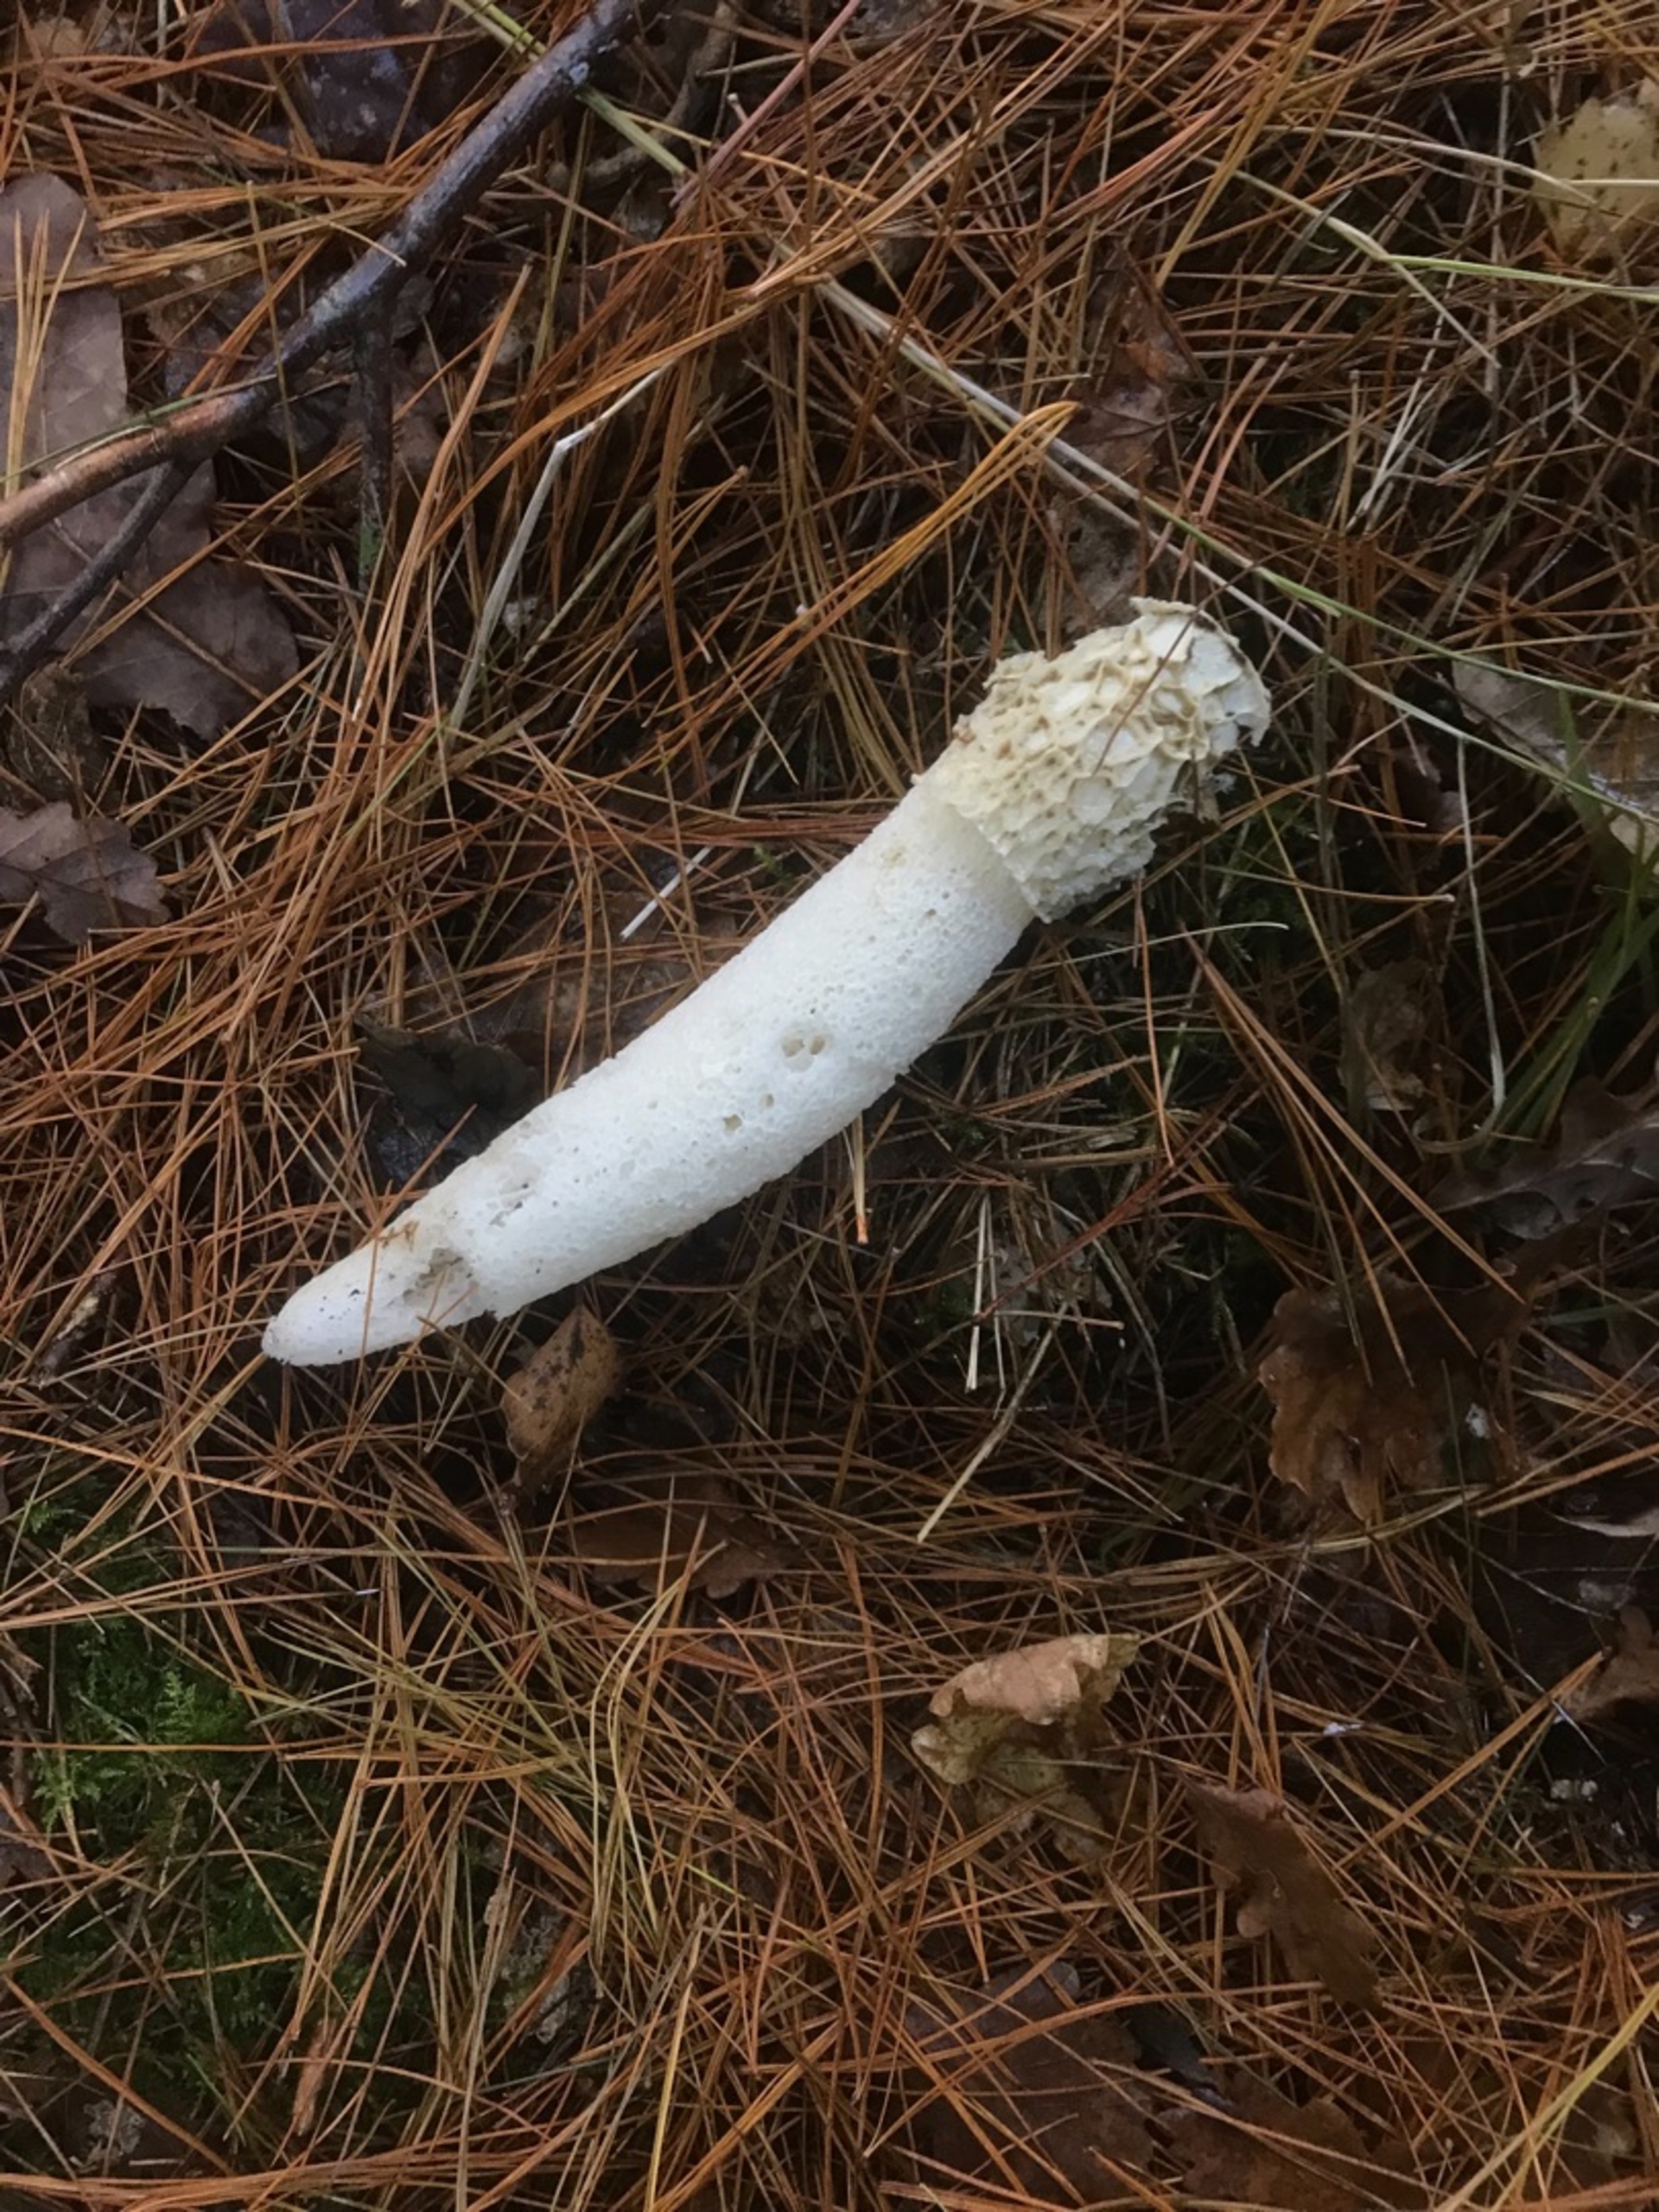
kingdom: Fungi
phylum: Basidiomycota
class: Agaricomycetes
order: Phallales
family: Phallaceae
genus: Phallus
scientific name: Phallus impudicus
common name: Almindelig stinksvamp
